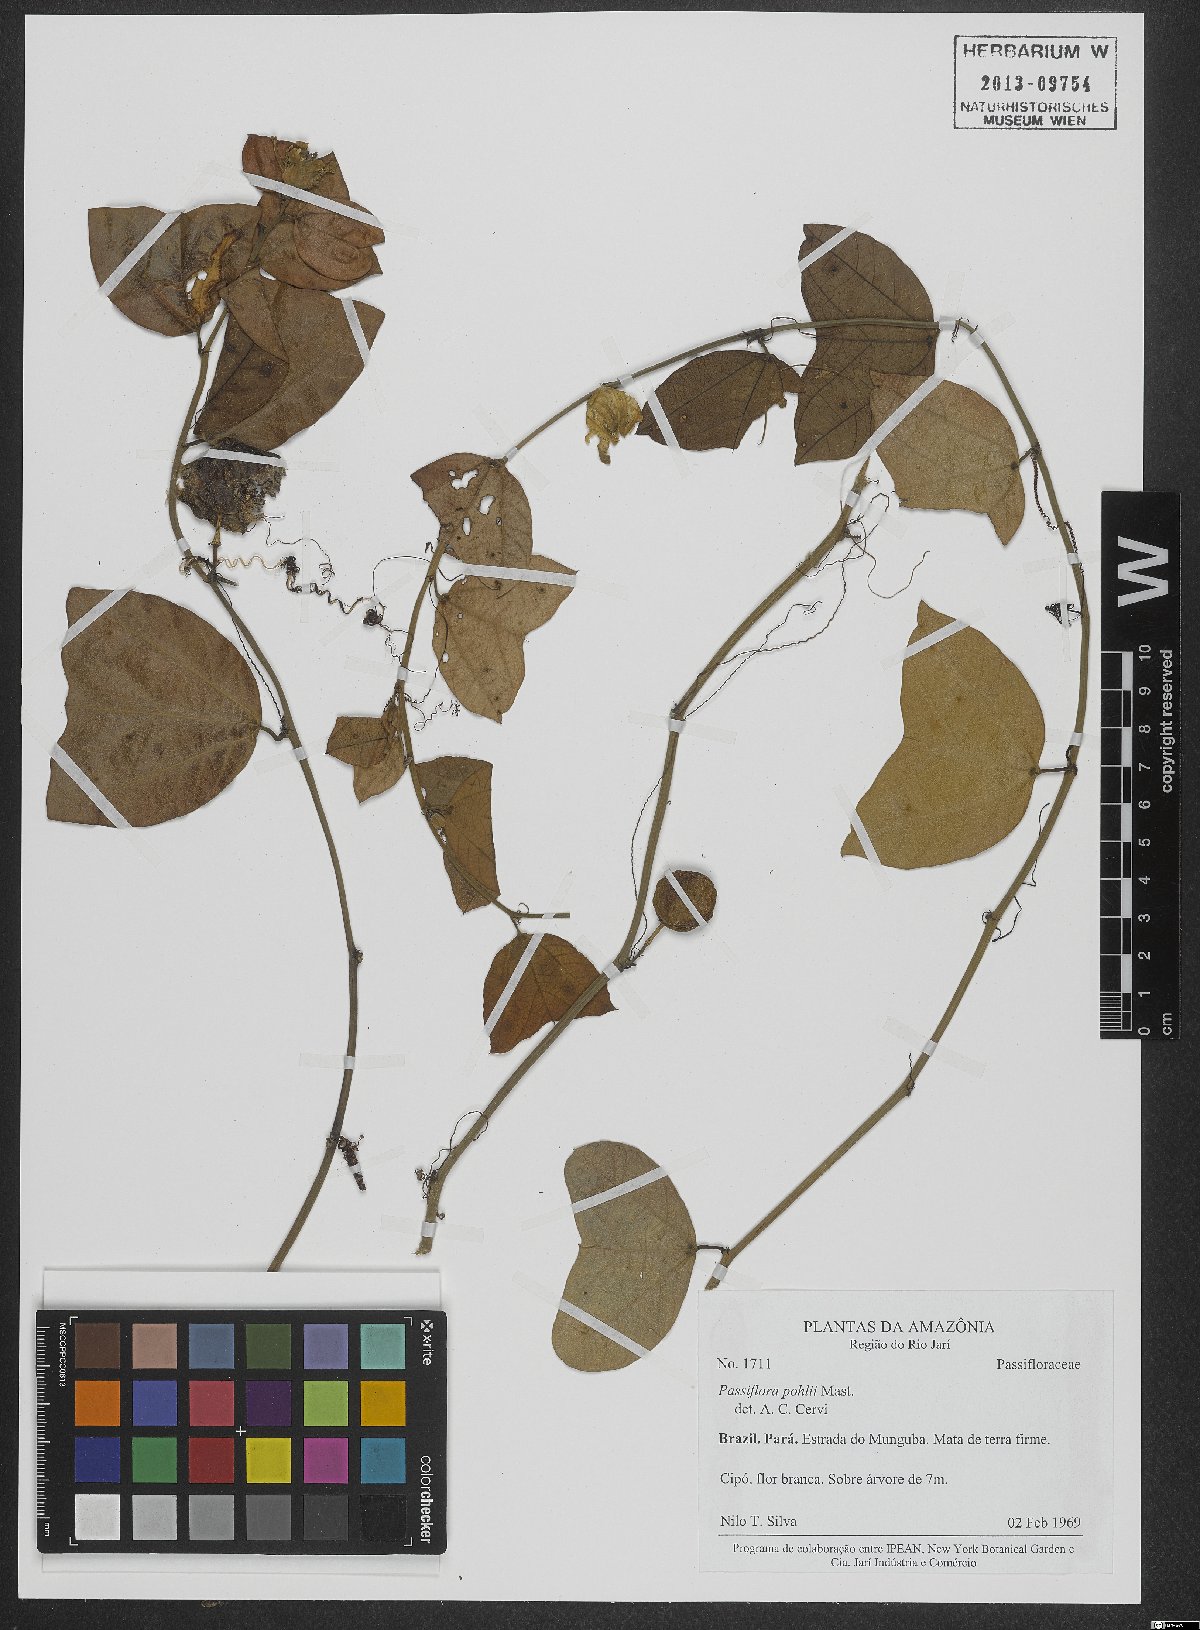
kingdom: Plantae
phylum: Tracheophyta
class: Magnoliopsida
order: Malpighiales
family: Passifloraceae
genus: Passiflora
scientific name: Passiflora pohlii
